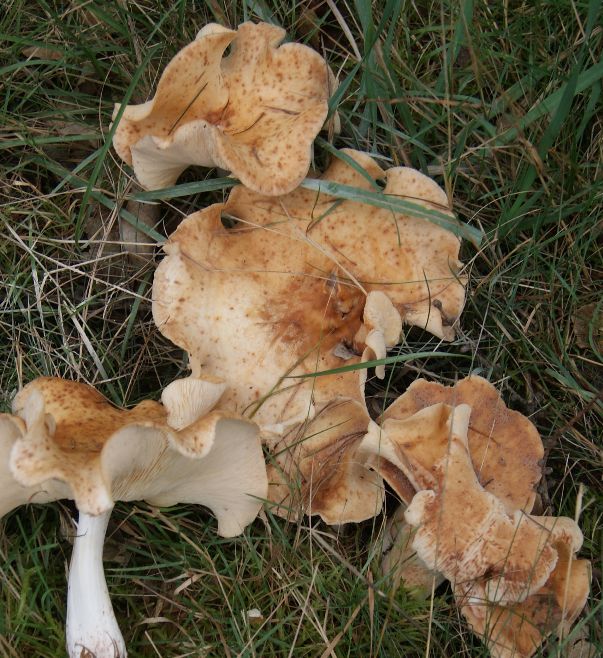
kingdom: Fungi
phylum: Basidiomycota
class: Agaricomycetes
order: Agaricales
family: Omphalotaceae
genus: Rhodocollybia
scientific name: Rhodocollybia maculata
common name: plettet fladhat
